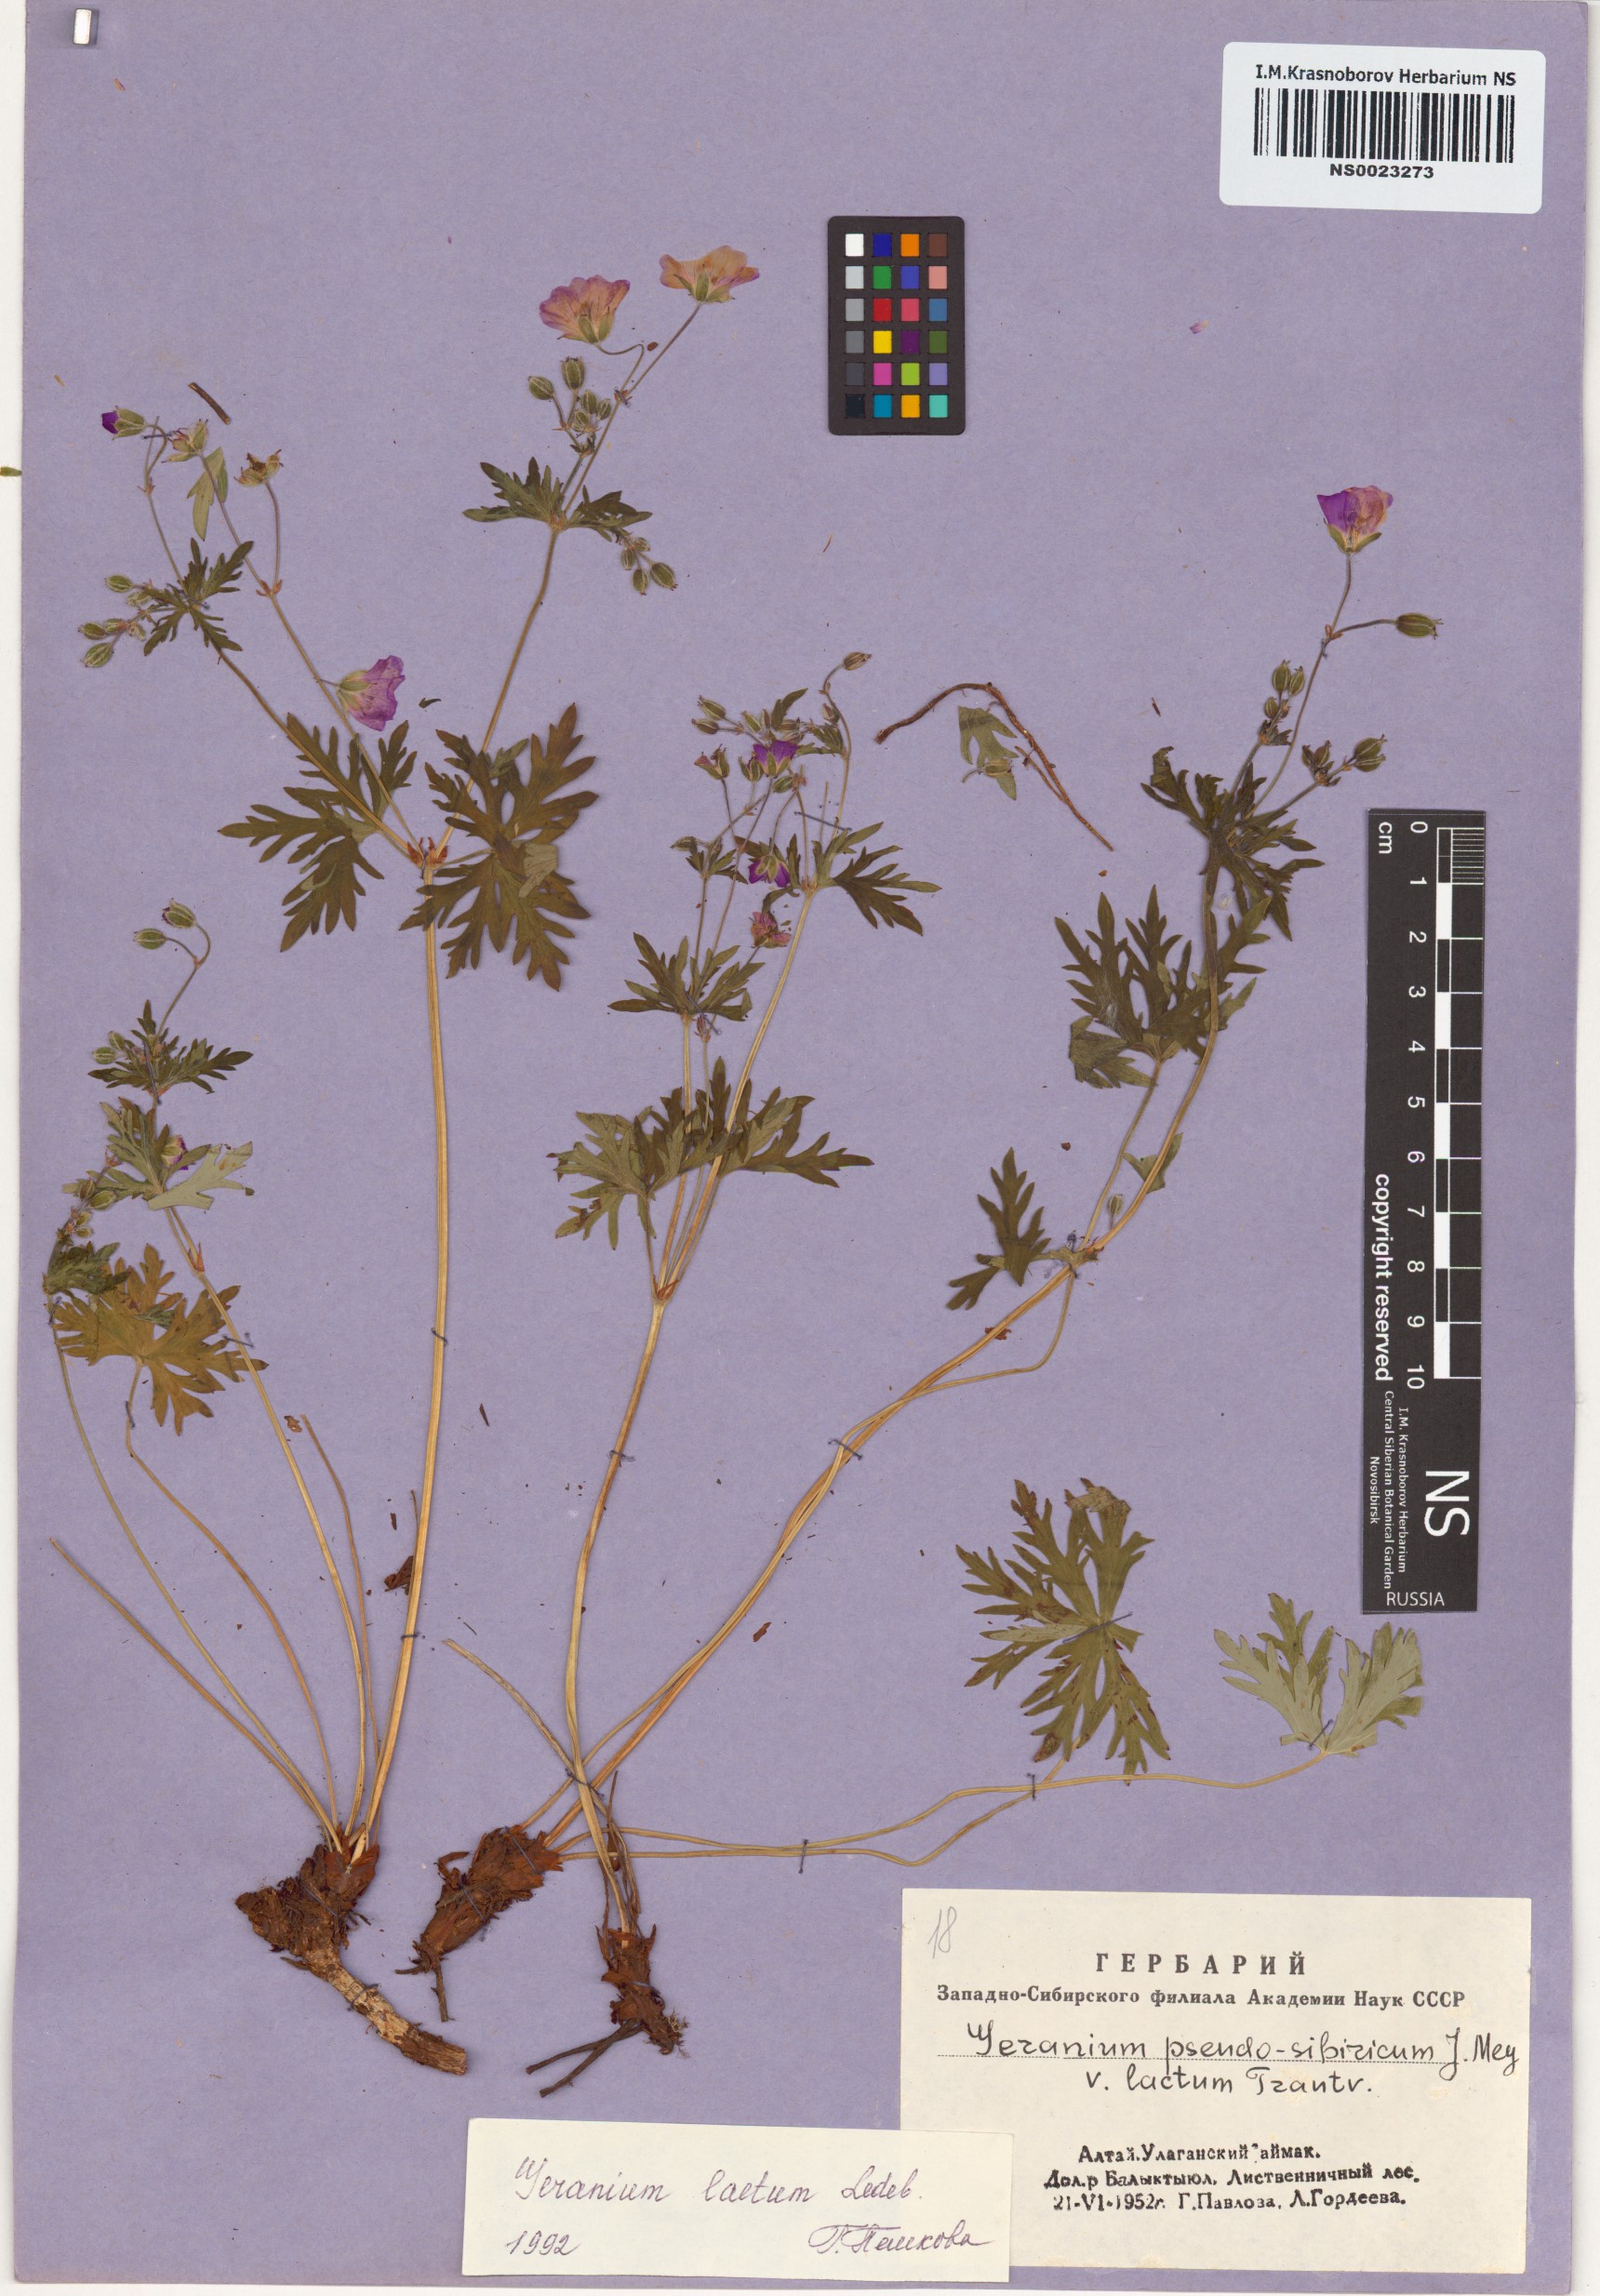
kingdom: Plantae
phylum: Tracheophyta
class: Magnoliopsida
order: Geraniales
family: Geraniaceae
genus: Geranium
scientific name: Geranium pseudosibiricum
